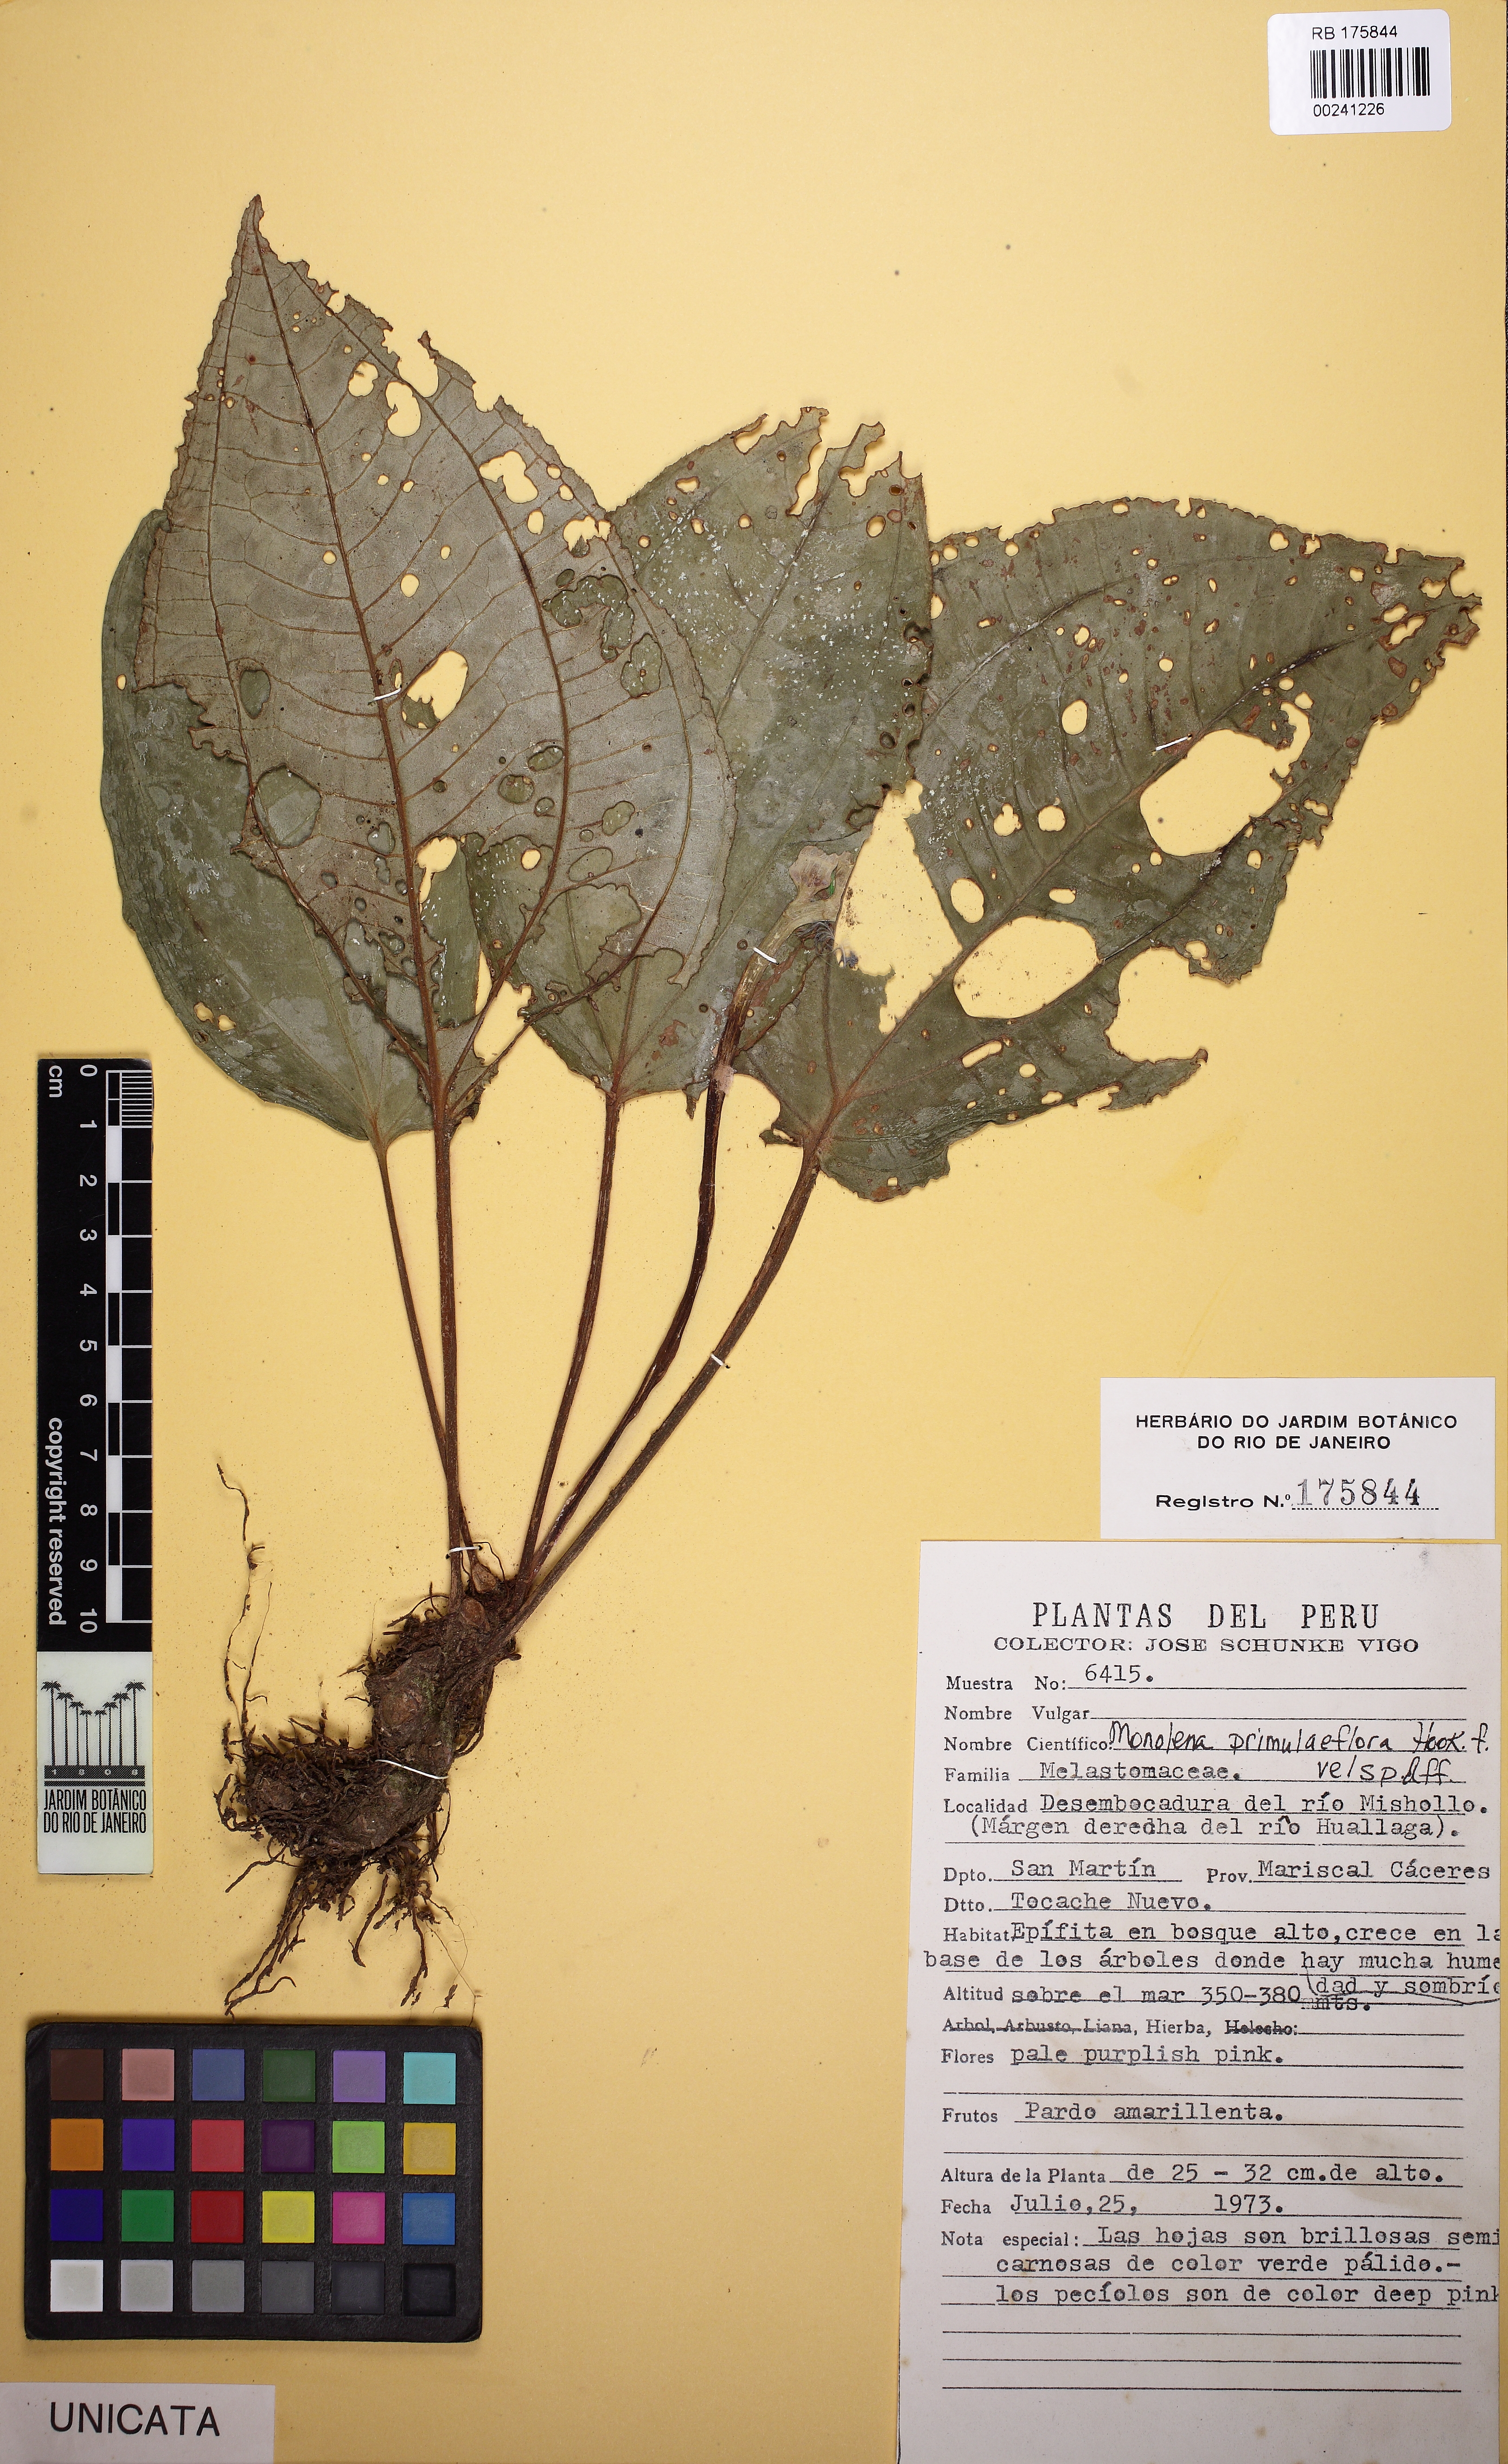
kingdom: Plantae
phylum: Tracheophyta
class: Magnoliopsida
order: Myrtales
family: Melastomataceae
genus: Monolena
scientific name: Monolena primuliflora
